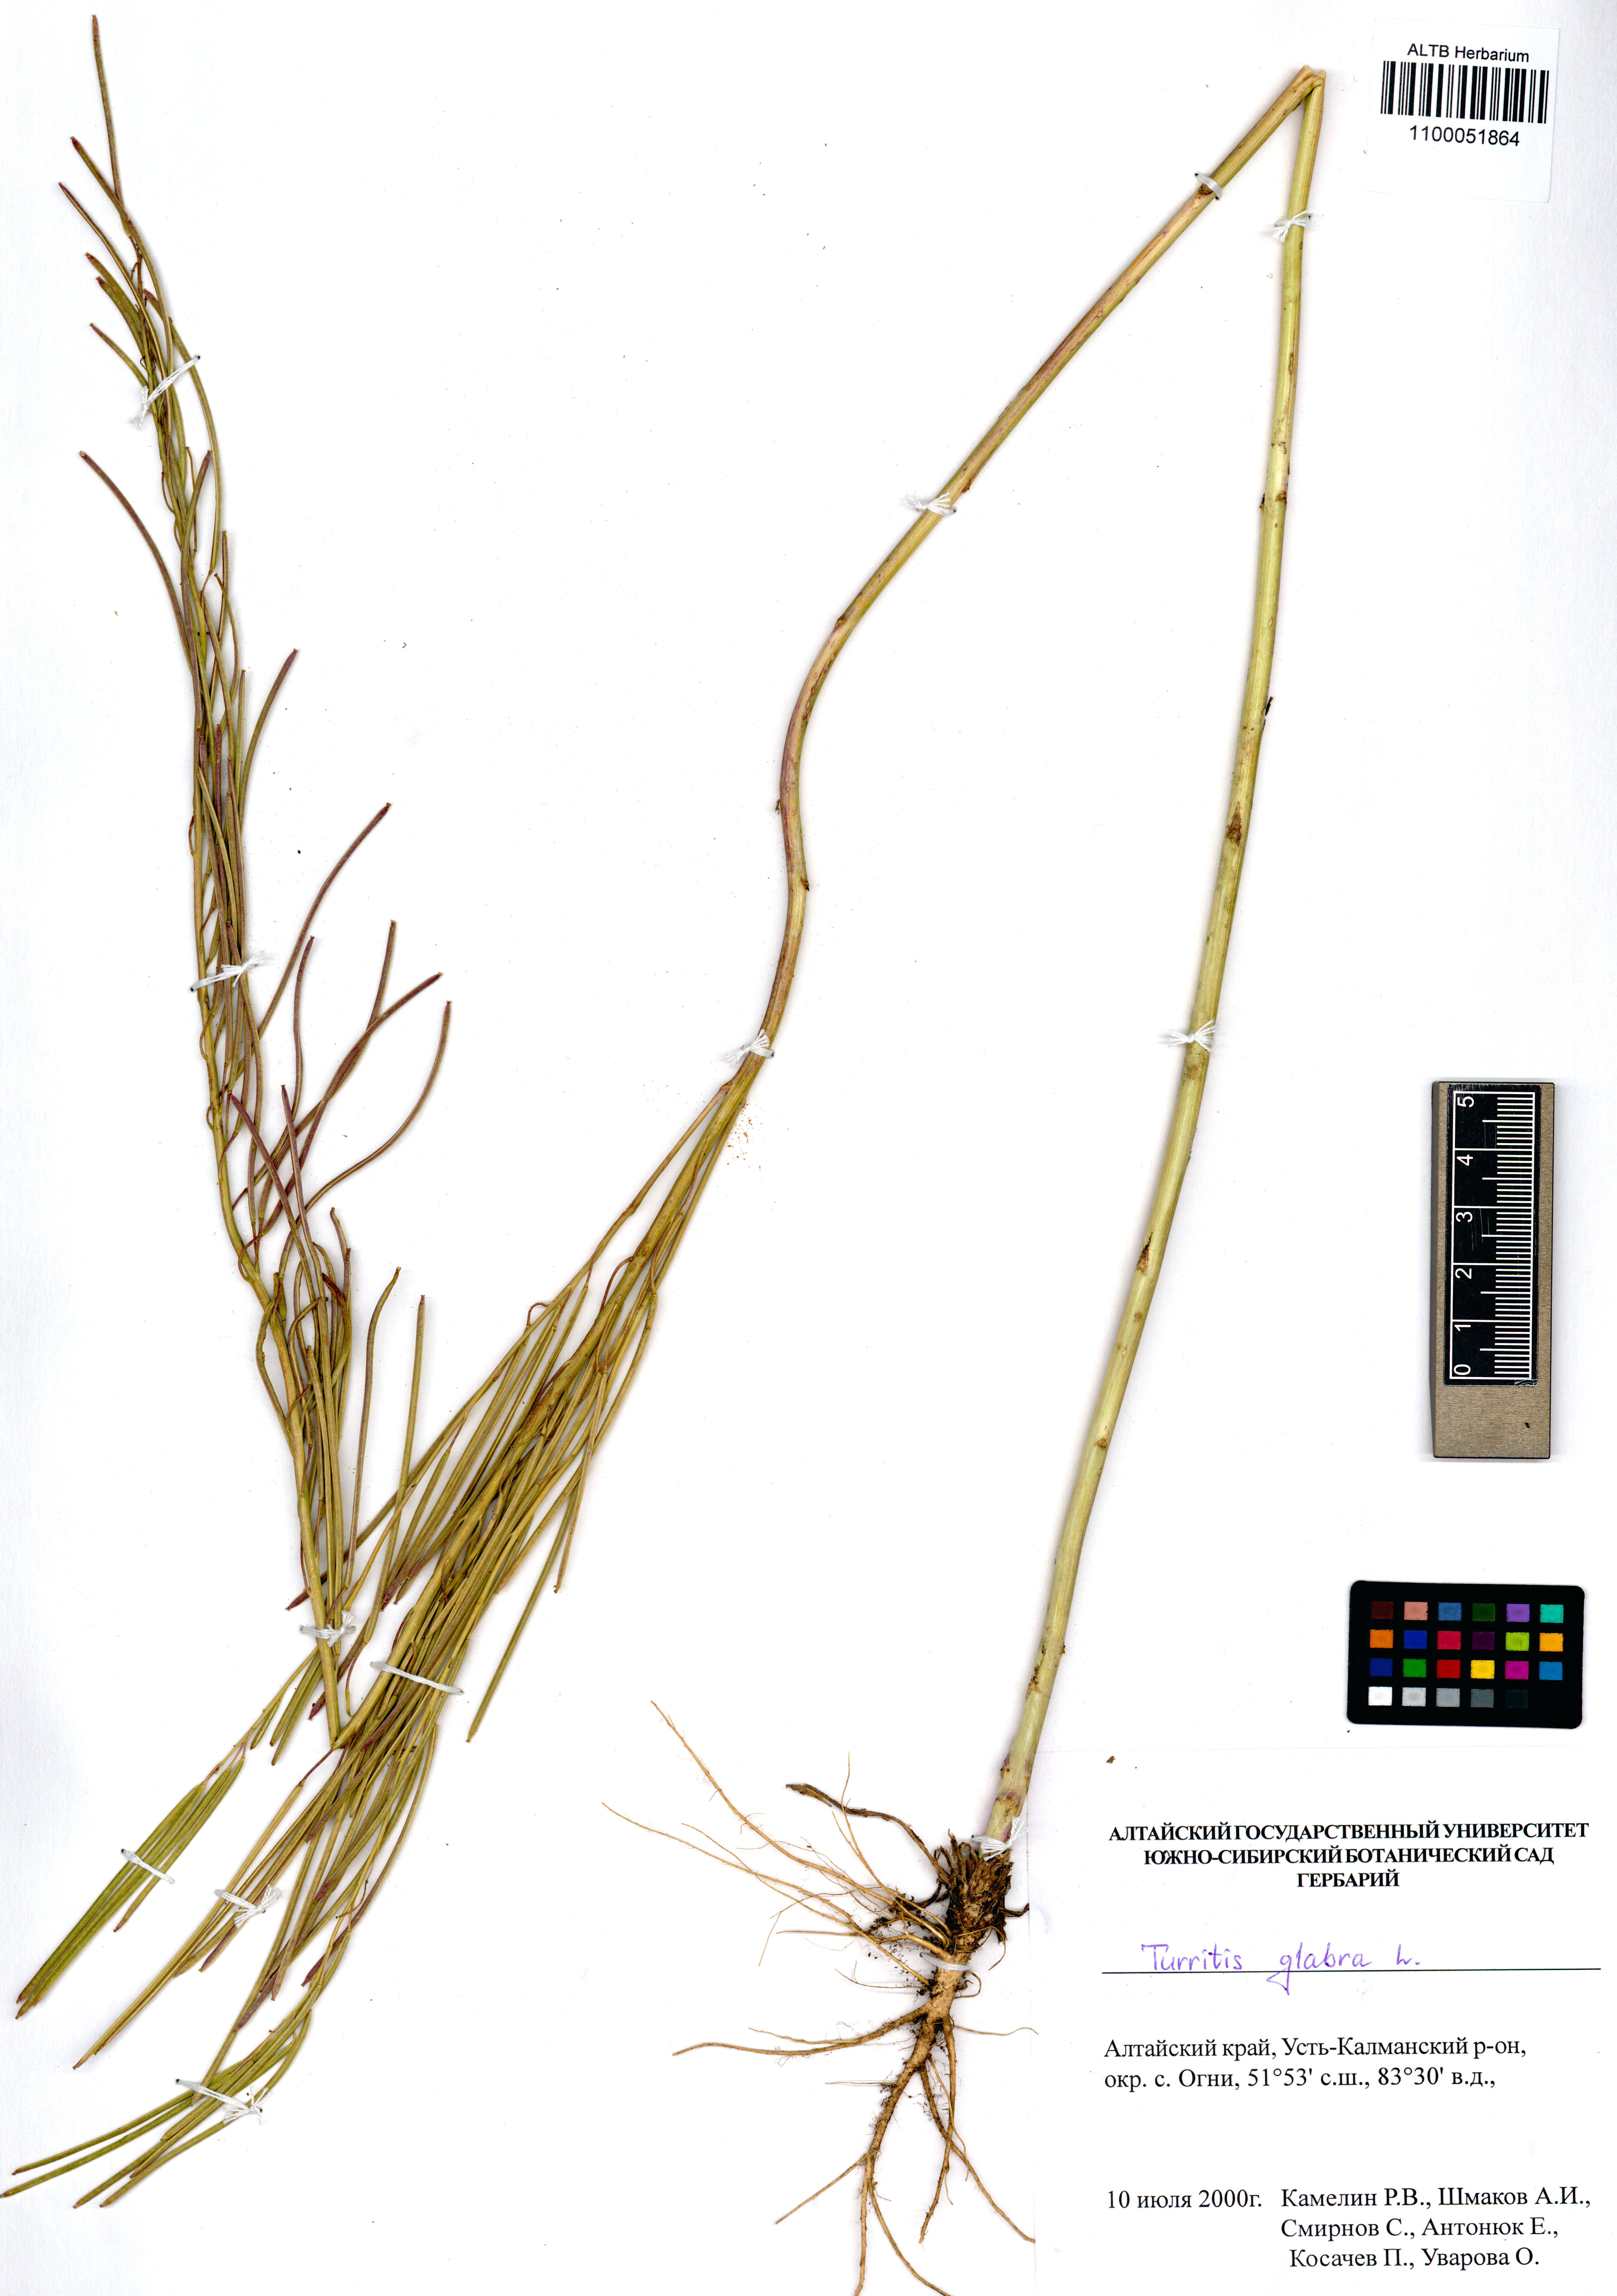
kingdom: Plantae
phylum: Tracheophyta
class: Magnoliopsida
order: Brassicales
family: Brassicaceae
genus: Turritis
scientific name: Turritis glabra
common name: Tower rockcress
